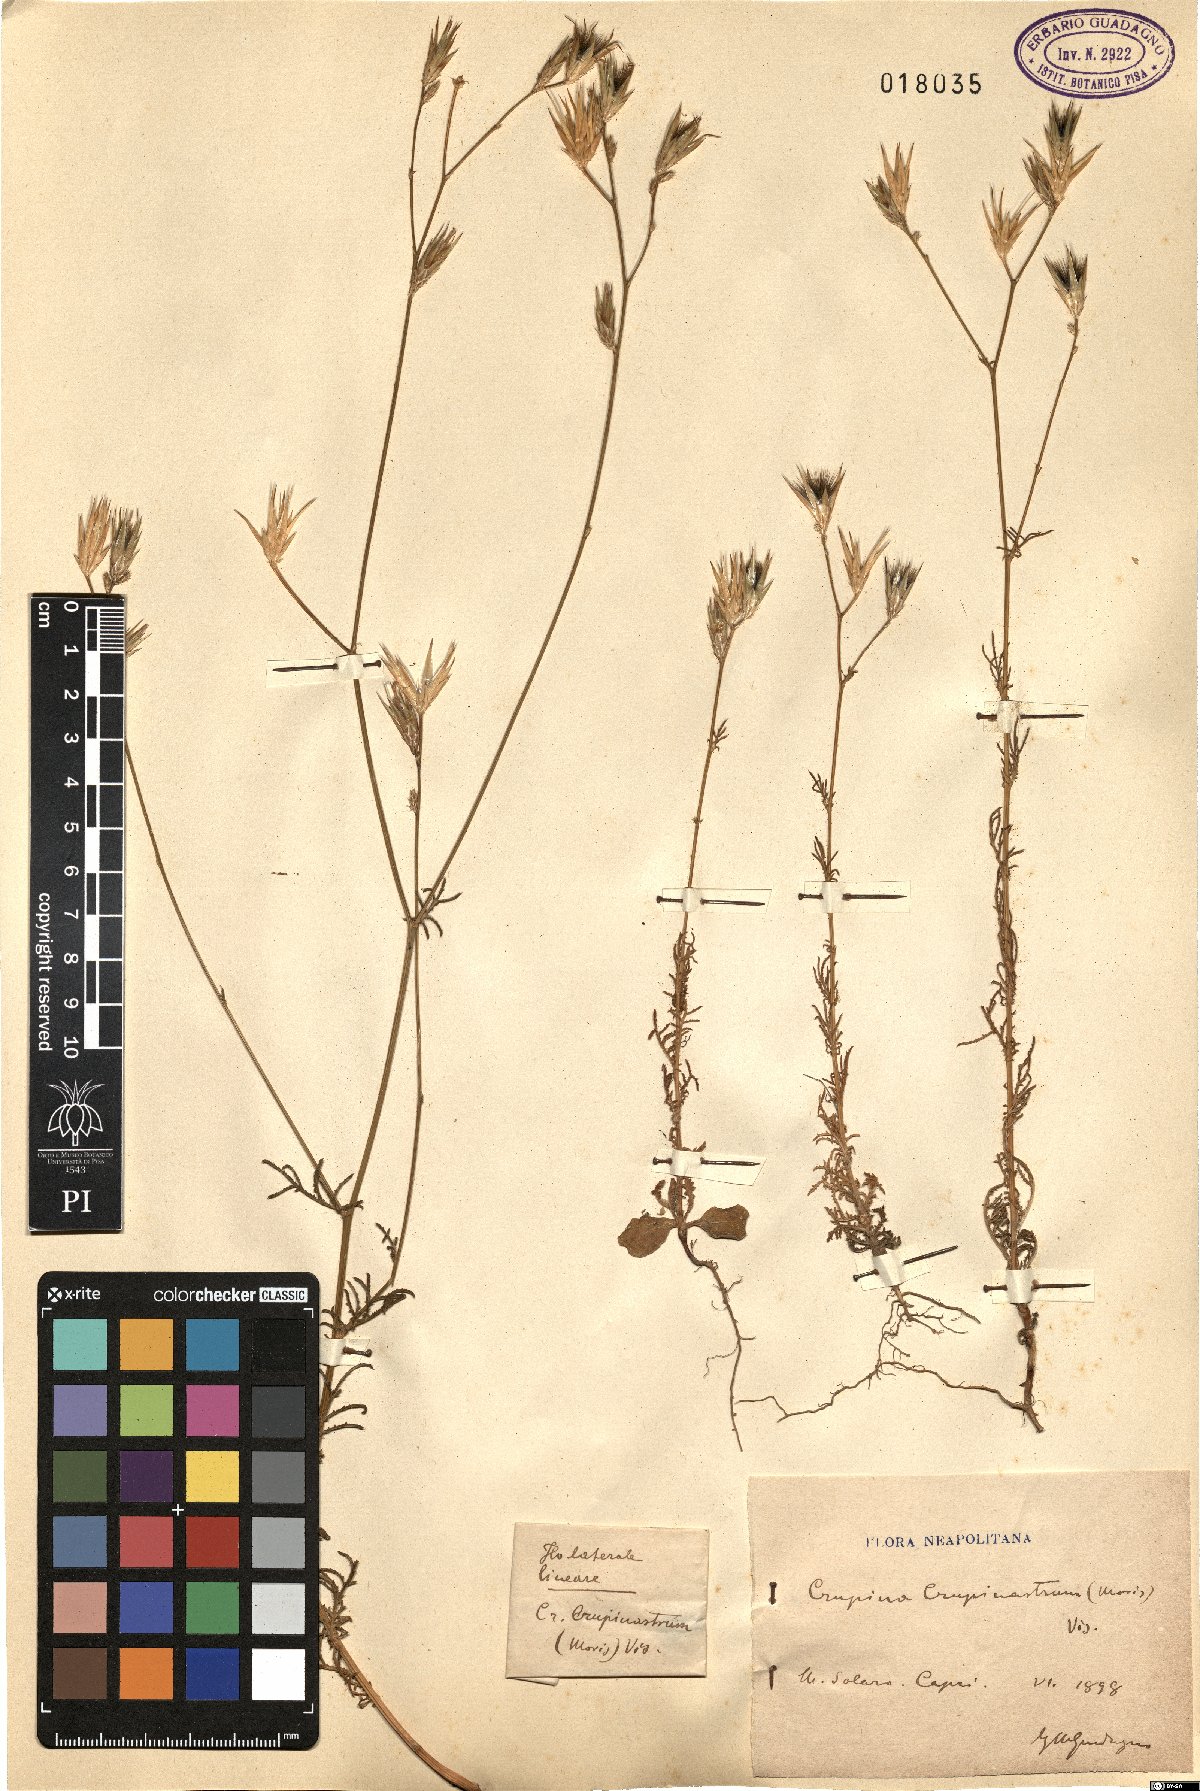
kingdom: Plantae
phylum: Tracheophyta
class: Magnoliopsida
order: Asterales
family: Asteraceae
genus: Crupina
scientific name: Crupina crupinastrum
